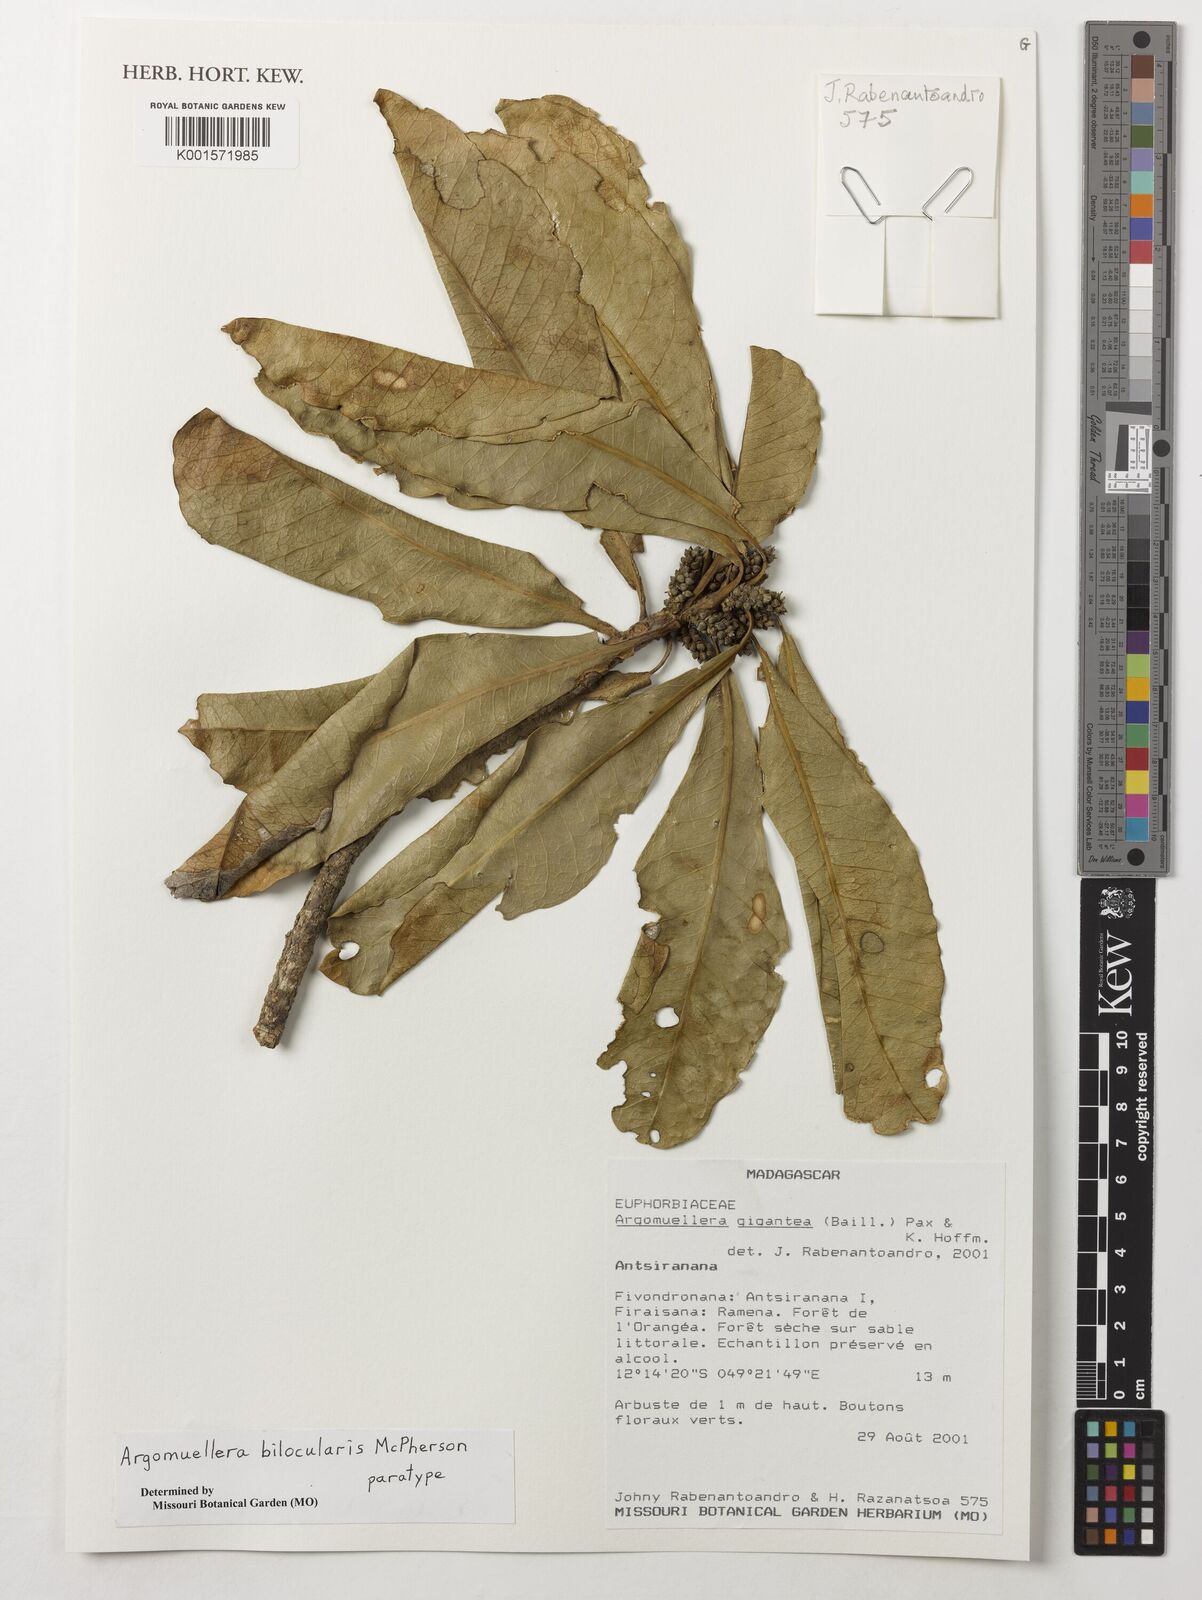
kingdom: Plantae
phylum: Tracheophyta
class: Magnoliopsida
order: Malpighiales
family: Euphorbiaceae
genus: Argomuellera
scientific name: Argomuellera bilocularis
